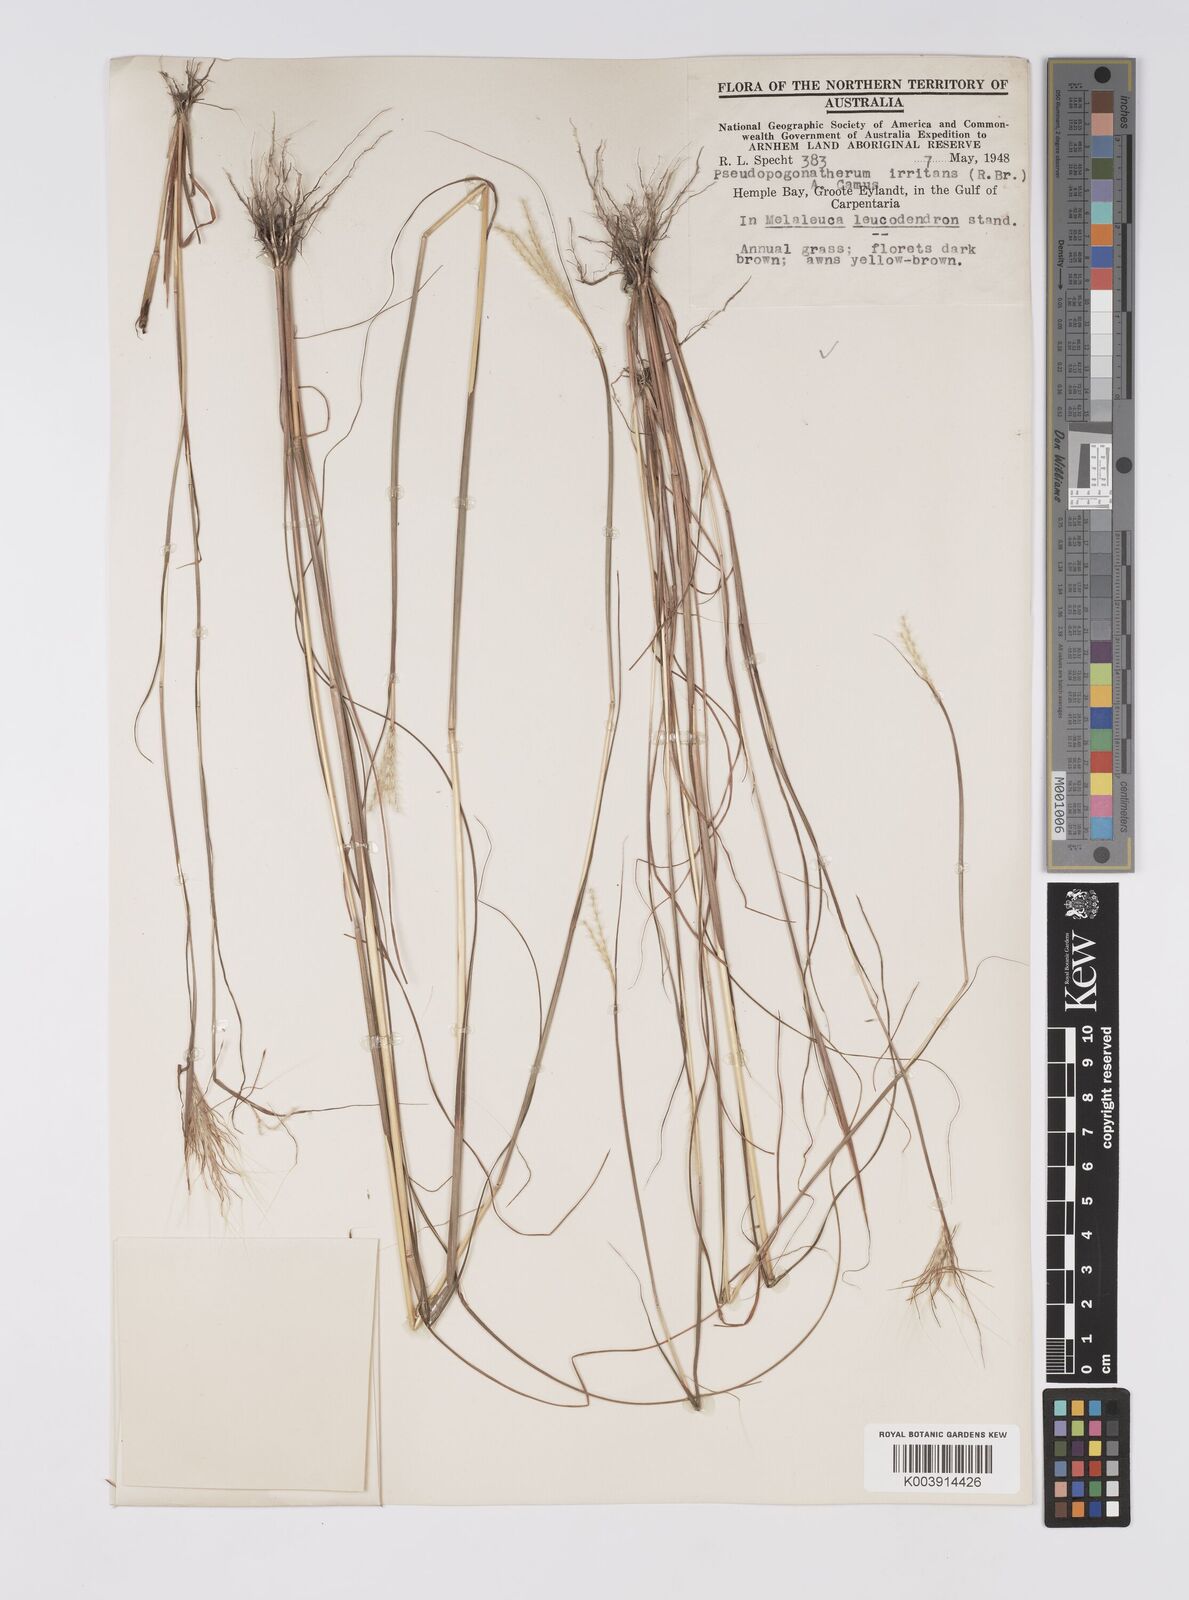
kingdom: Plantae
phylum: Tracheophyta
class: Liliopsida
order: Poales
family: Poaceae
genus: Pseudopogonatherum
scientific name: Pseudopogonatherum irritans
